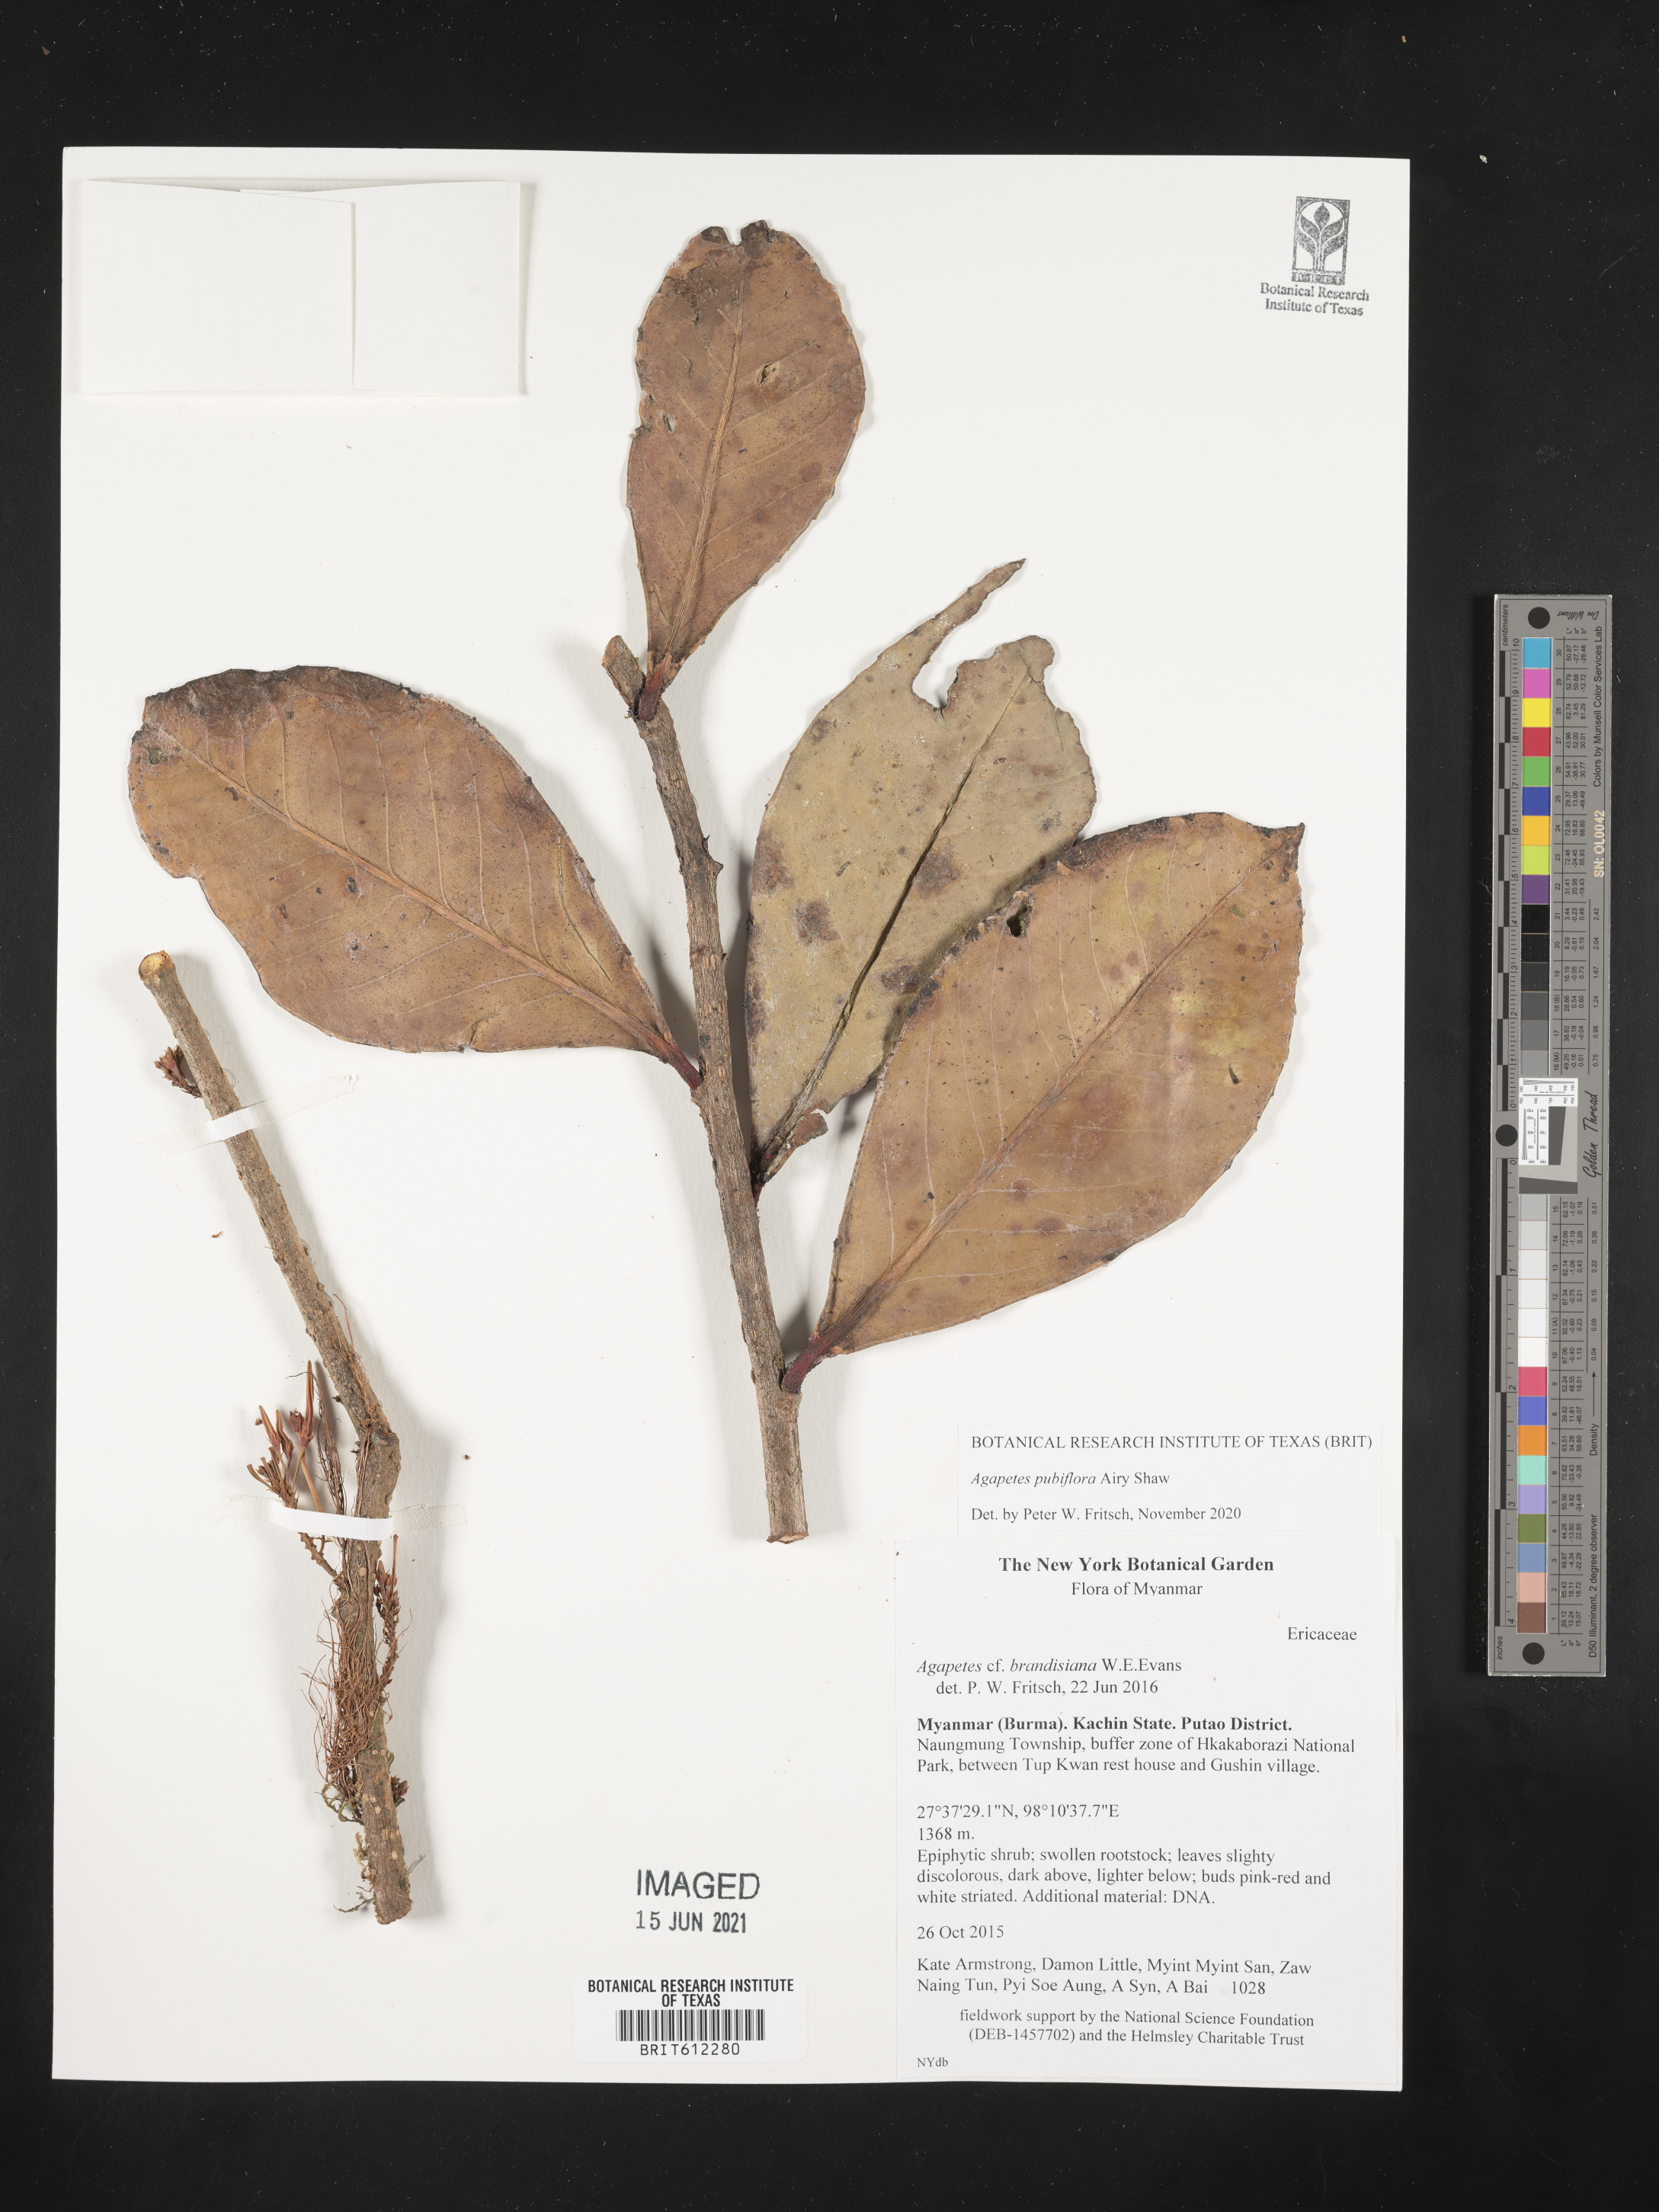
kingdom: Plantae
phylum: Tracheophyta
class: Magnoliopsida
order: Ericales
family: Ericaceae
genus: Agapetes
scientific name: Agapetes
